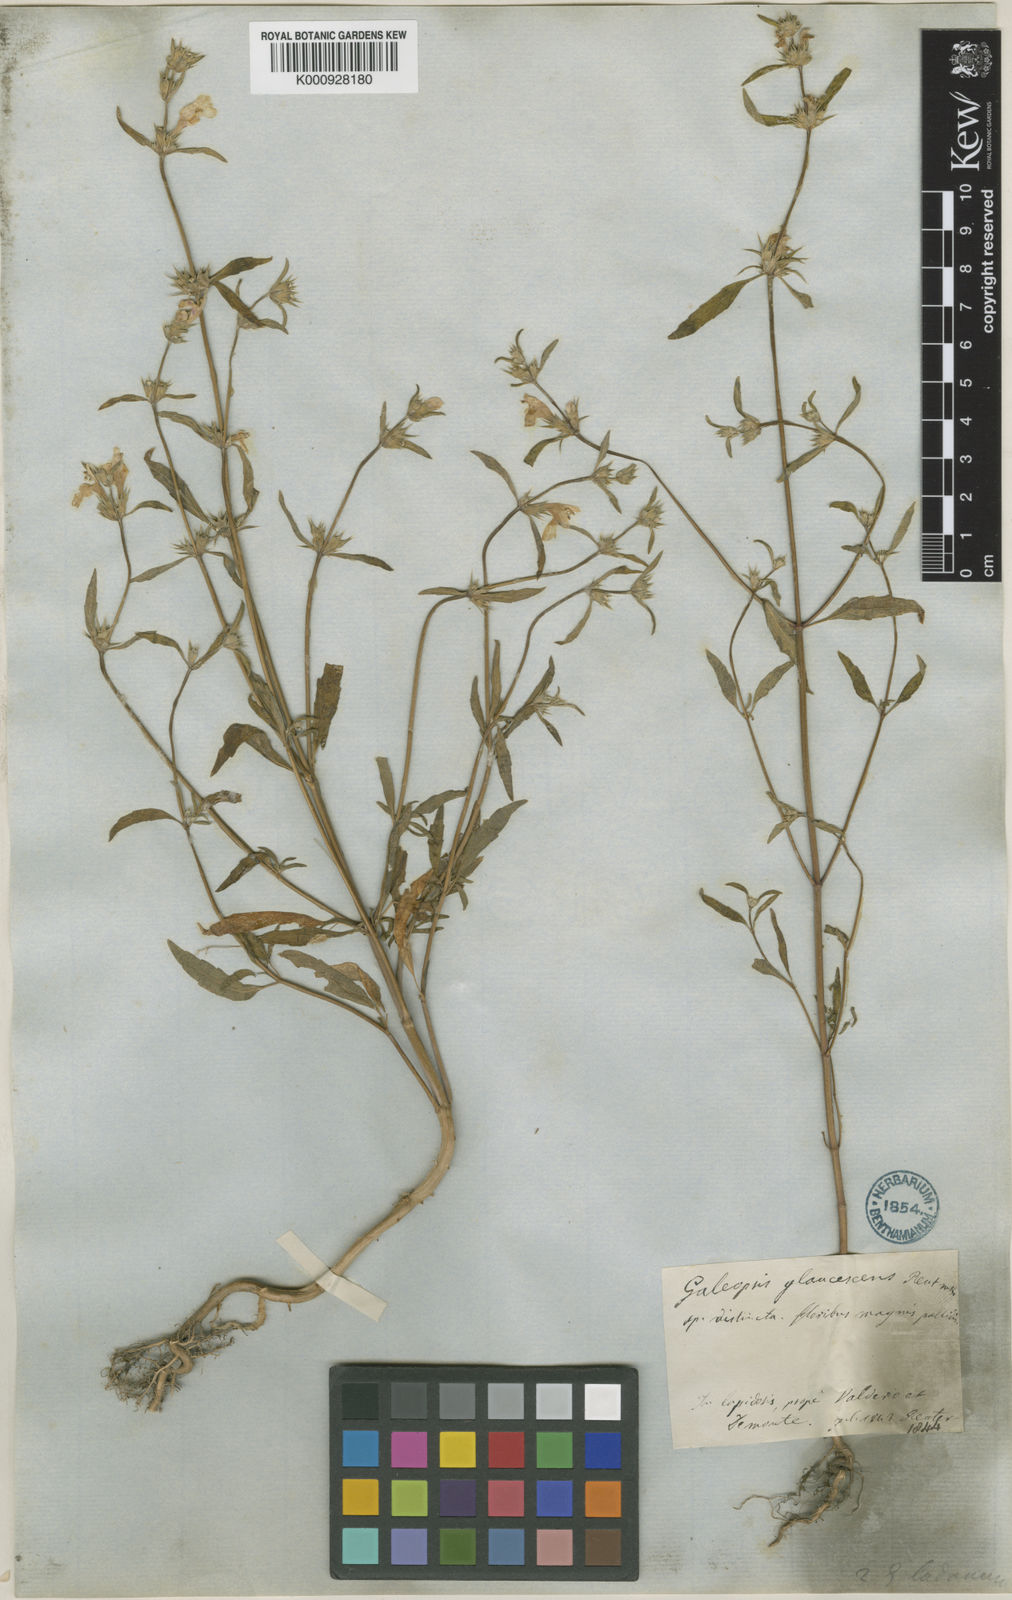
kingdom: Plantae
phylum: Tracheophyta
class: Magnoliopsida
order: Lamiales
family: Lamiaceae
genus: Galeopsis
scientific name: Galeopsis reuteri
